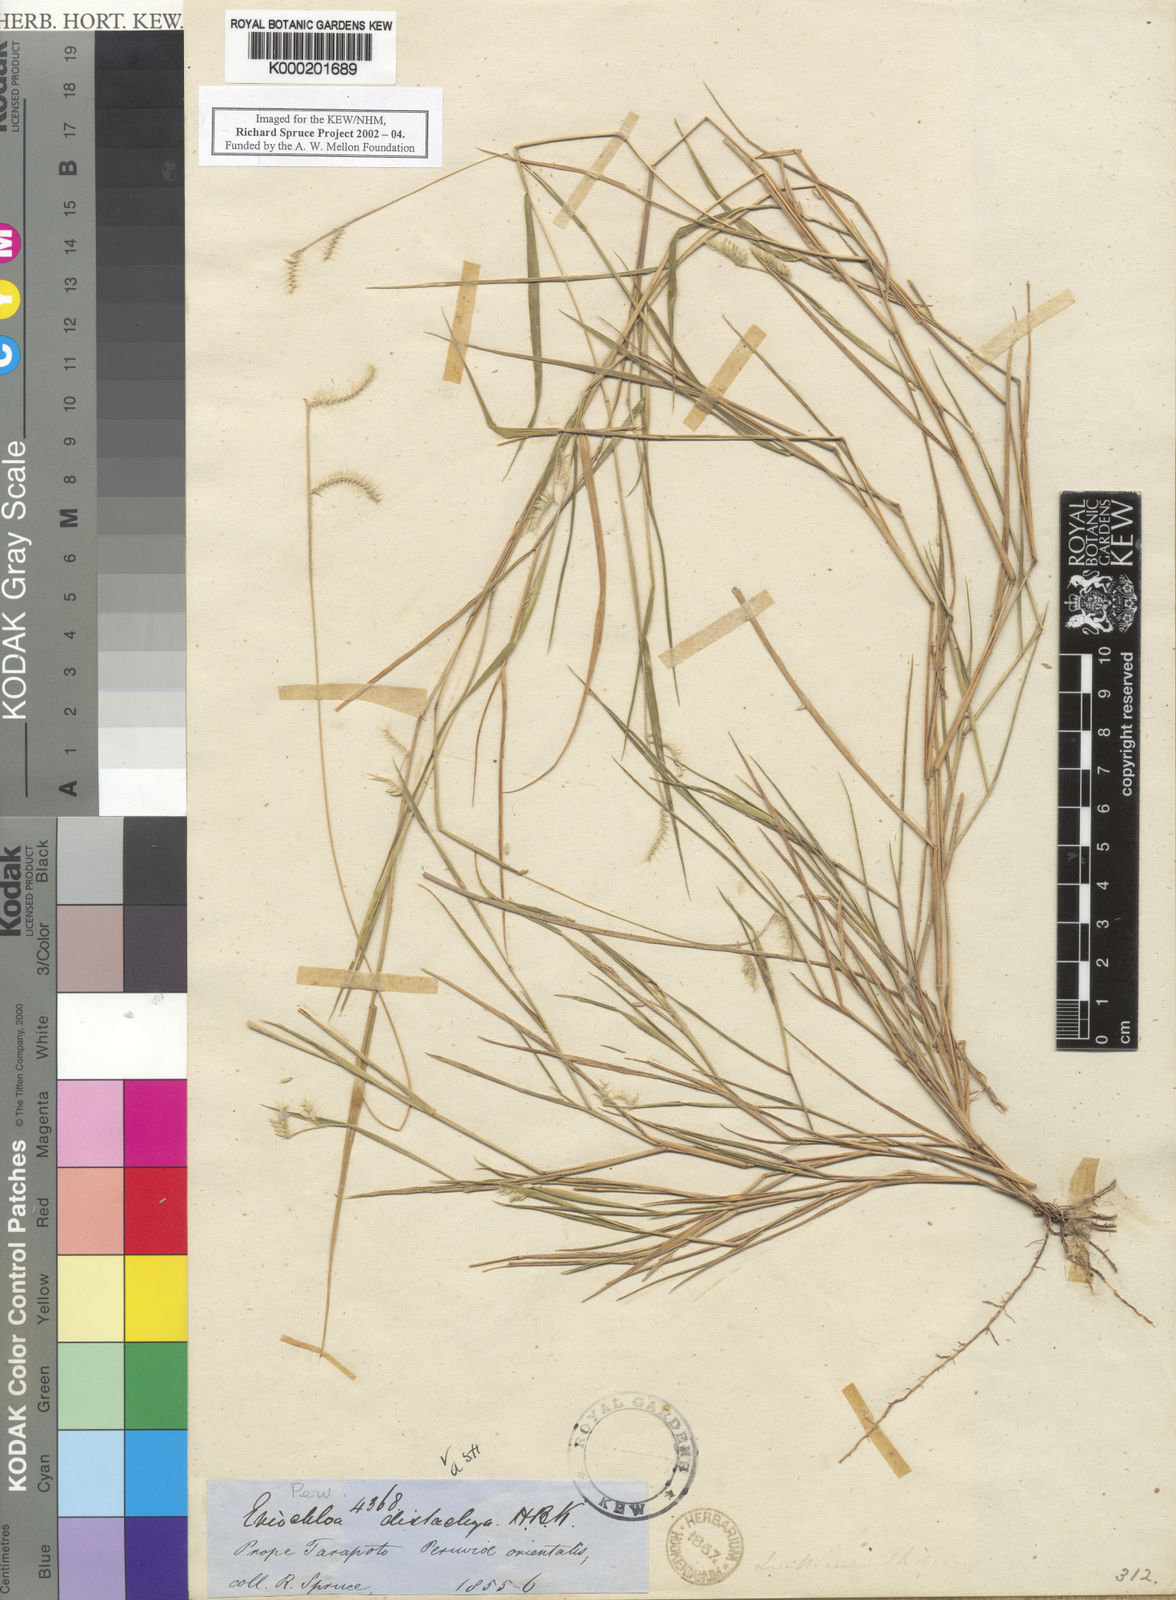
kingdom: Plantae
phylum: Tracheophyta
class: Liliopsida
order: Poales
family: Poaceae
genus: Eriochloa
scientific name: Eriochloa distachya
